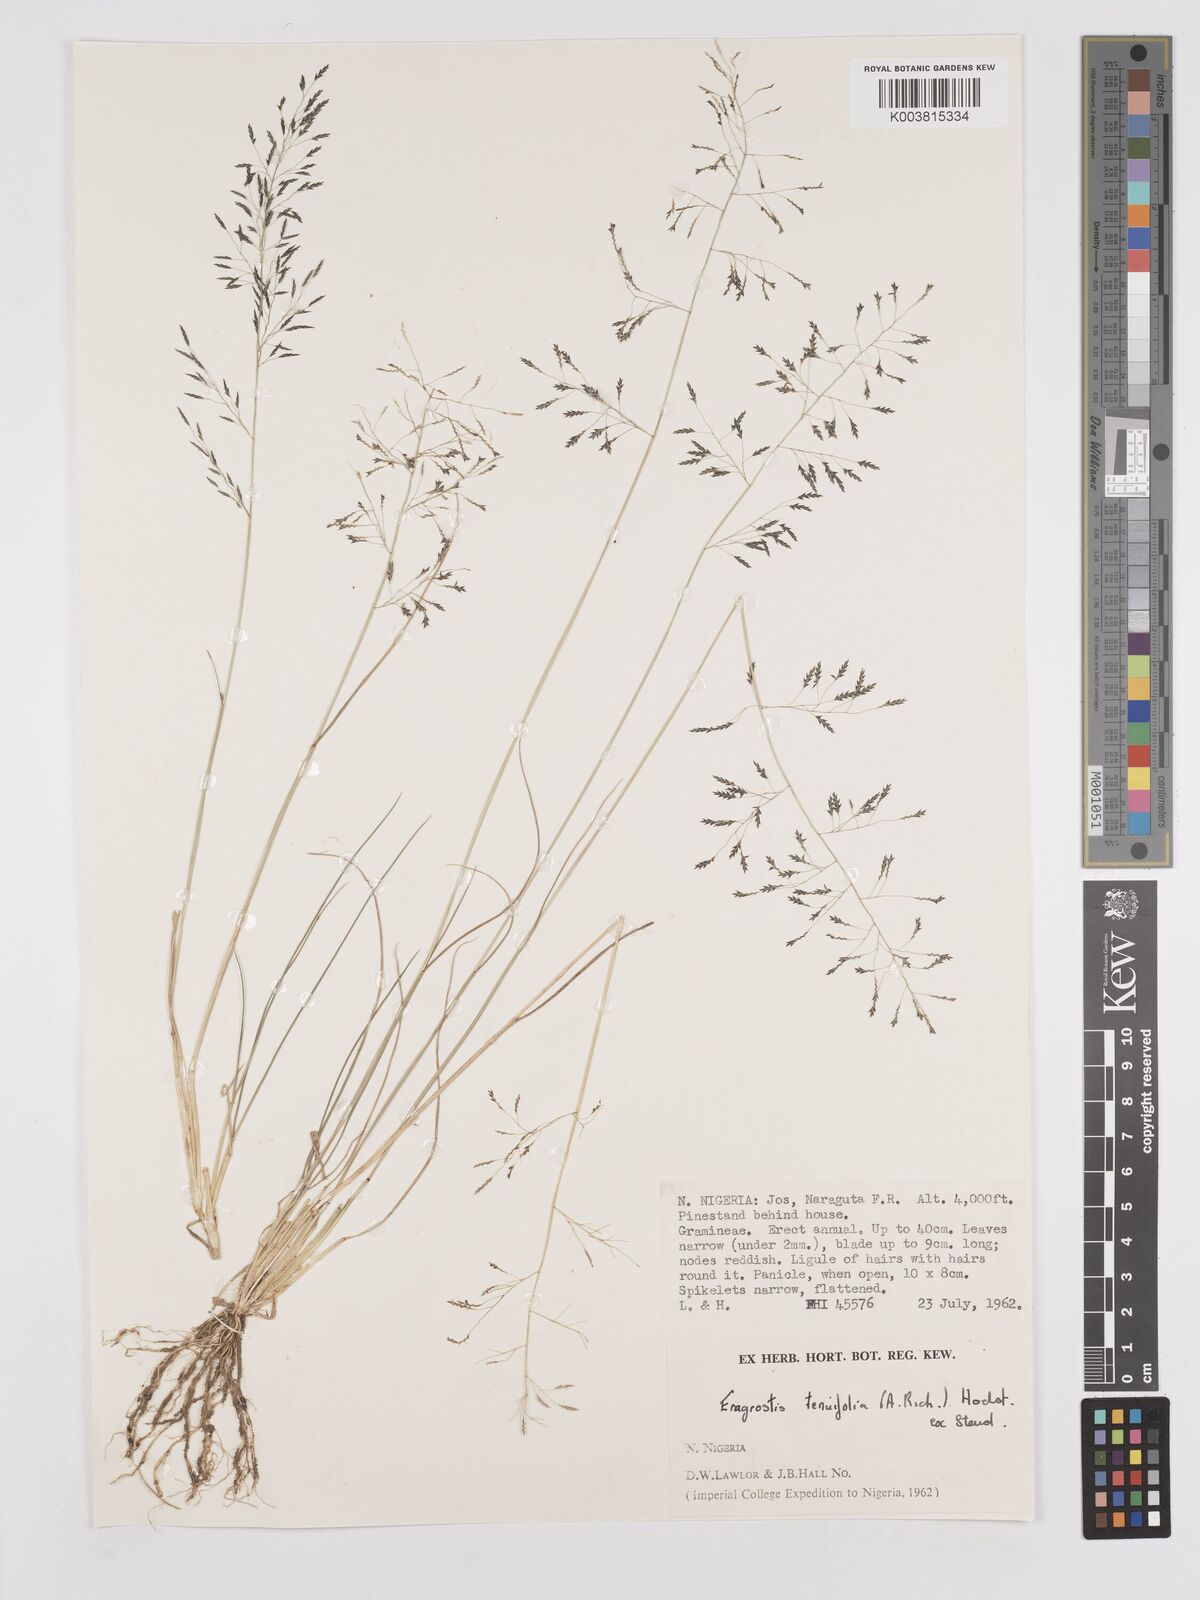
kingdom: Plantae
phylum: Tracheophyta
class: Liliopsida
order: Poales
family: Poaceae
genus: Eragrostis
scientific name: Eragrostis tenuifolia
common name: Elastic grass
